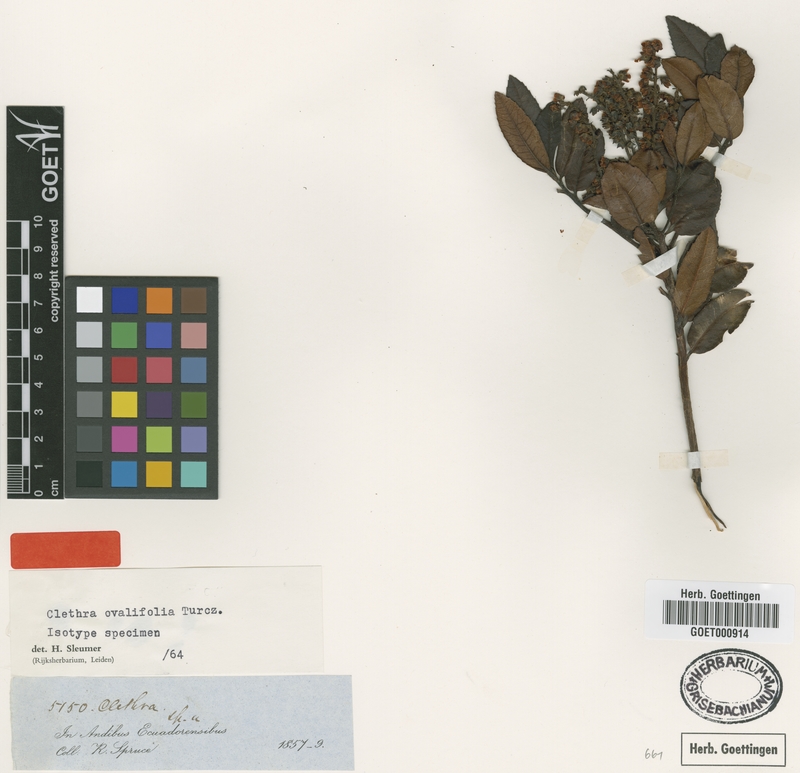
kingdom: Plantae
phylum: Tracheophyta
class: Magnoliopsida
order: Ericales
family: Clethraceae
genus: Clethra
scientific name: Clethra ovalifolia
